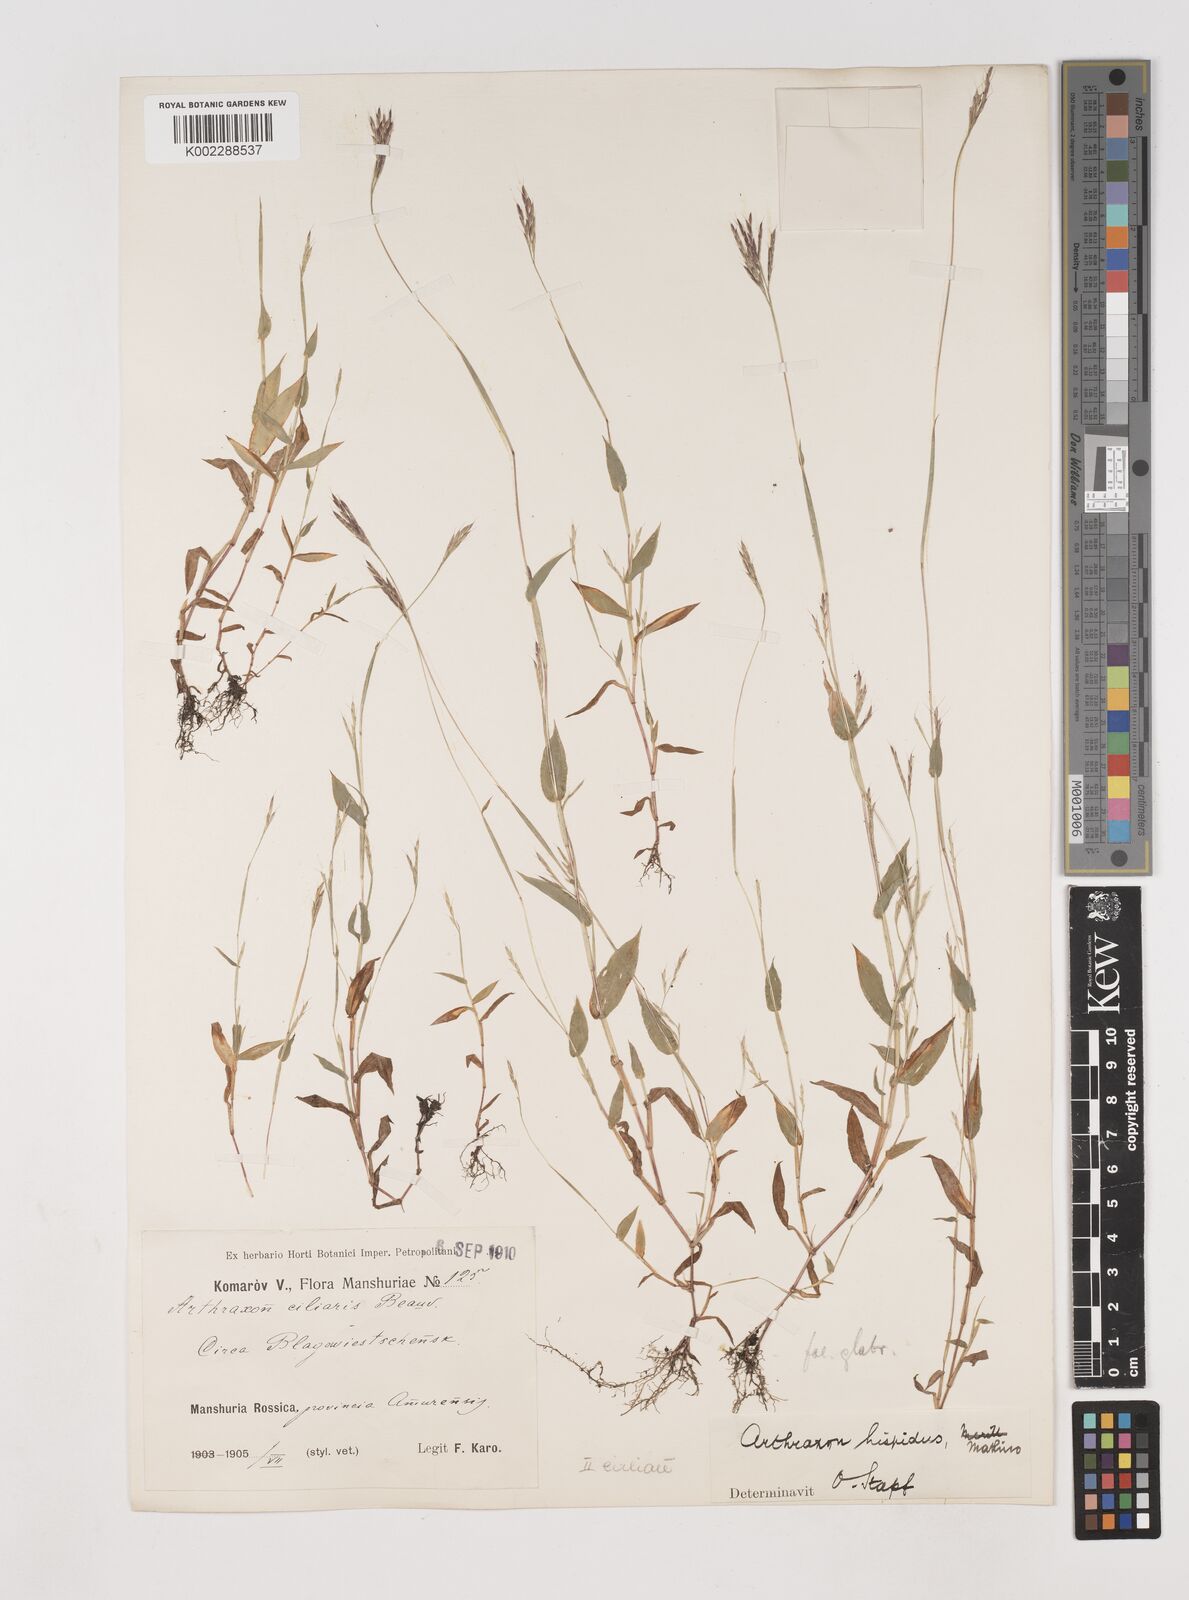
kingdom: Plantae
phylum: Tracheophyta
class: Liliopsida
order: Poales
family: Poaceae
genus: Arthraxon
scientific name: Arthraxon hispidus
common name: Small carpgrass
